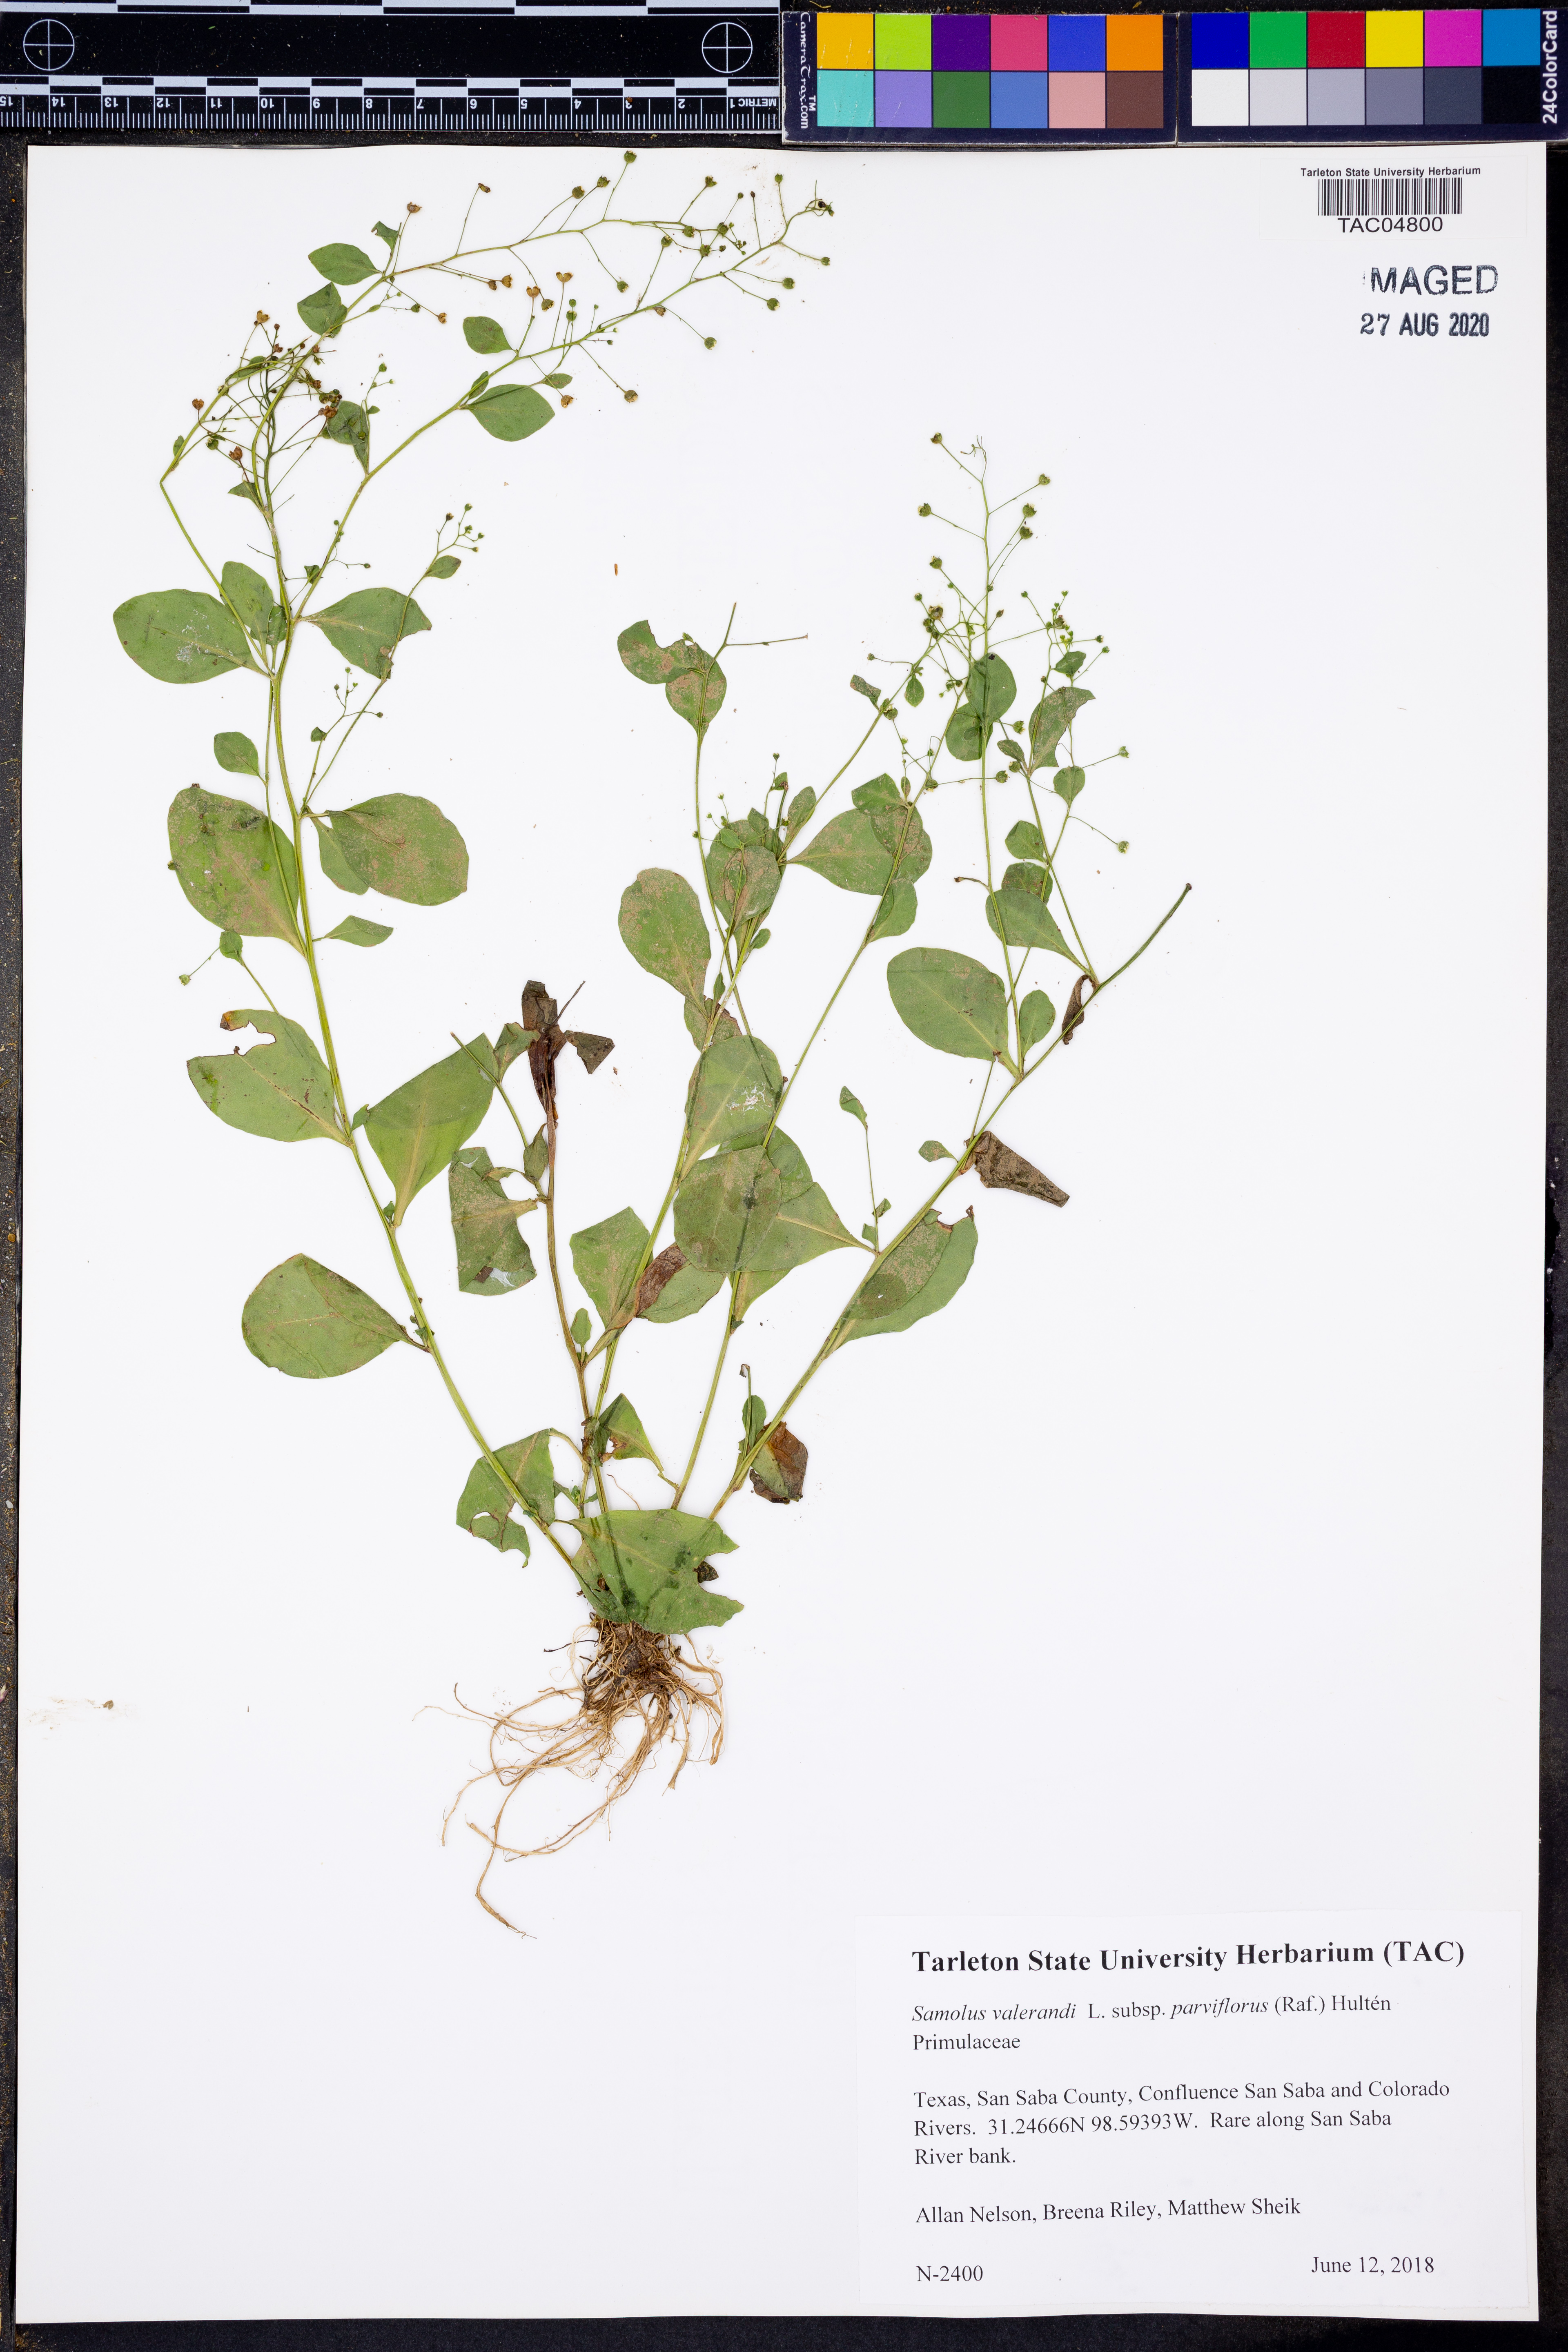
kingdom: Plantae
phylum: Tracheophyta
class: Magnoliopsida
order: Ericales
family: Primulaceae
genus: Samolus
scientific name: Samolus parviflorus
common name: False water pimpernel
